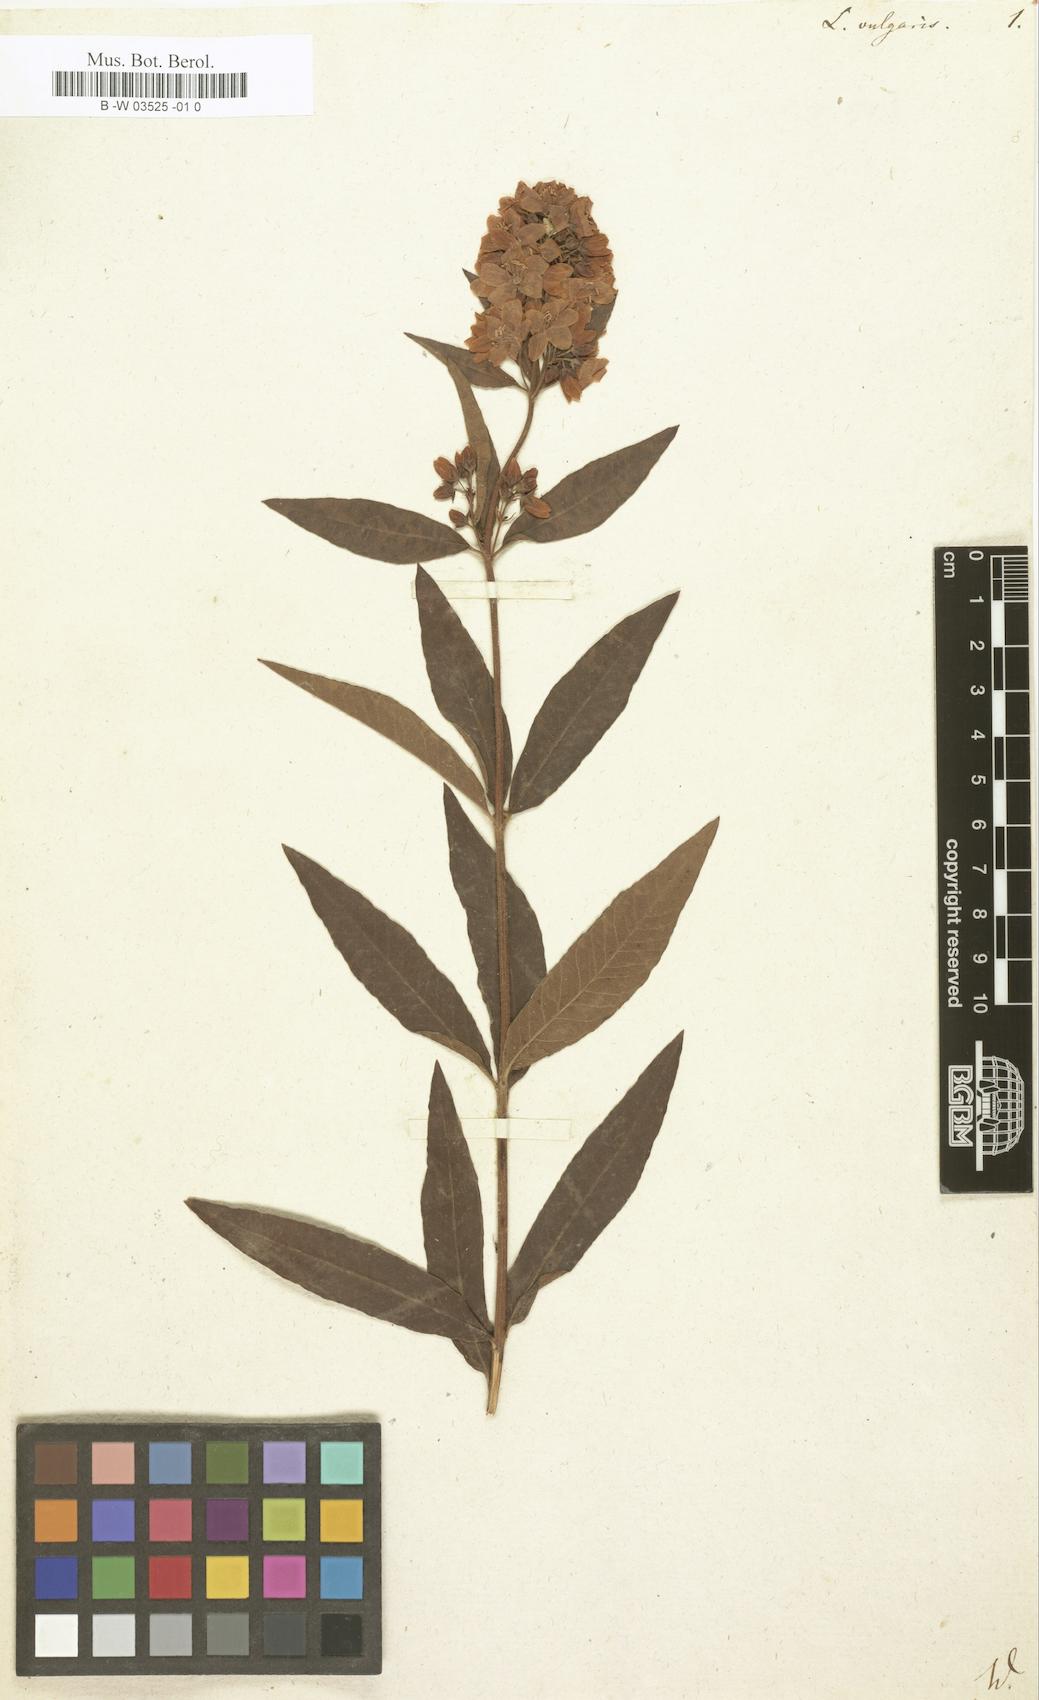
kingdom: Plantae
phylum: Tracheophyta
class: Magnoliopsida
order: Ericales
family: Primulaceae
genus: Lysimachia
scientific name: Lysimachia vulgaris
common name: Yellow loosestrife
